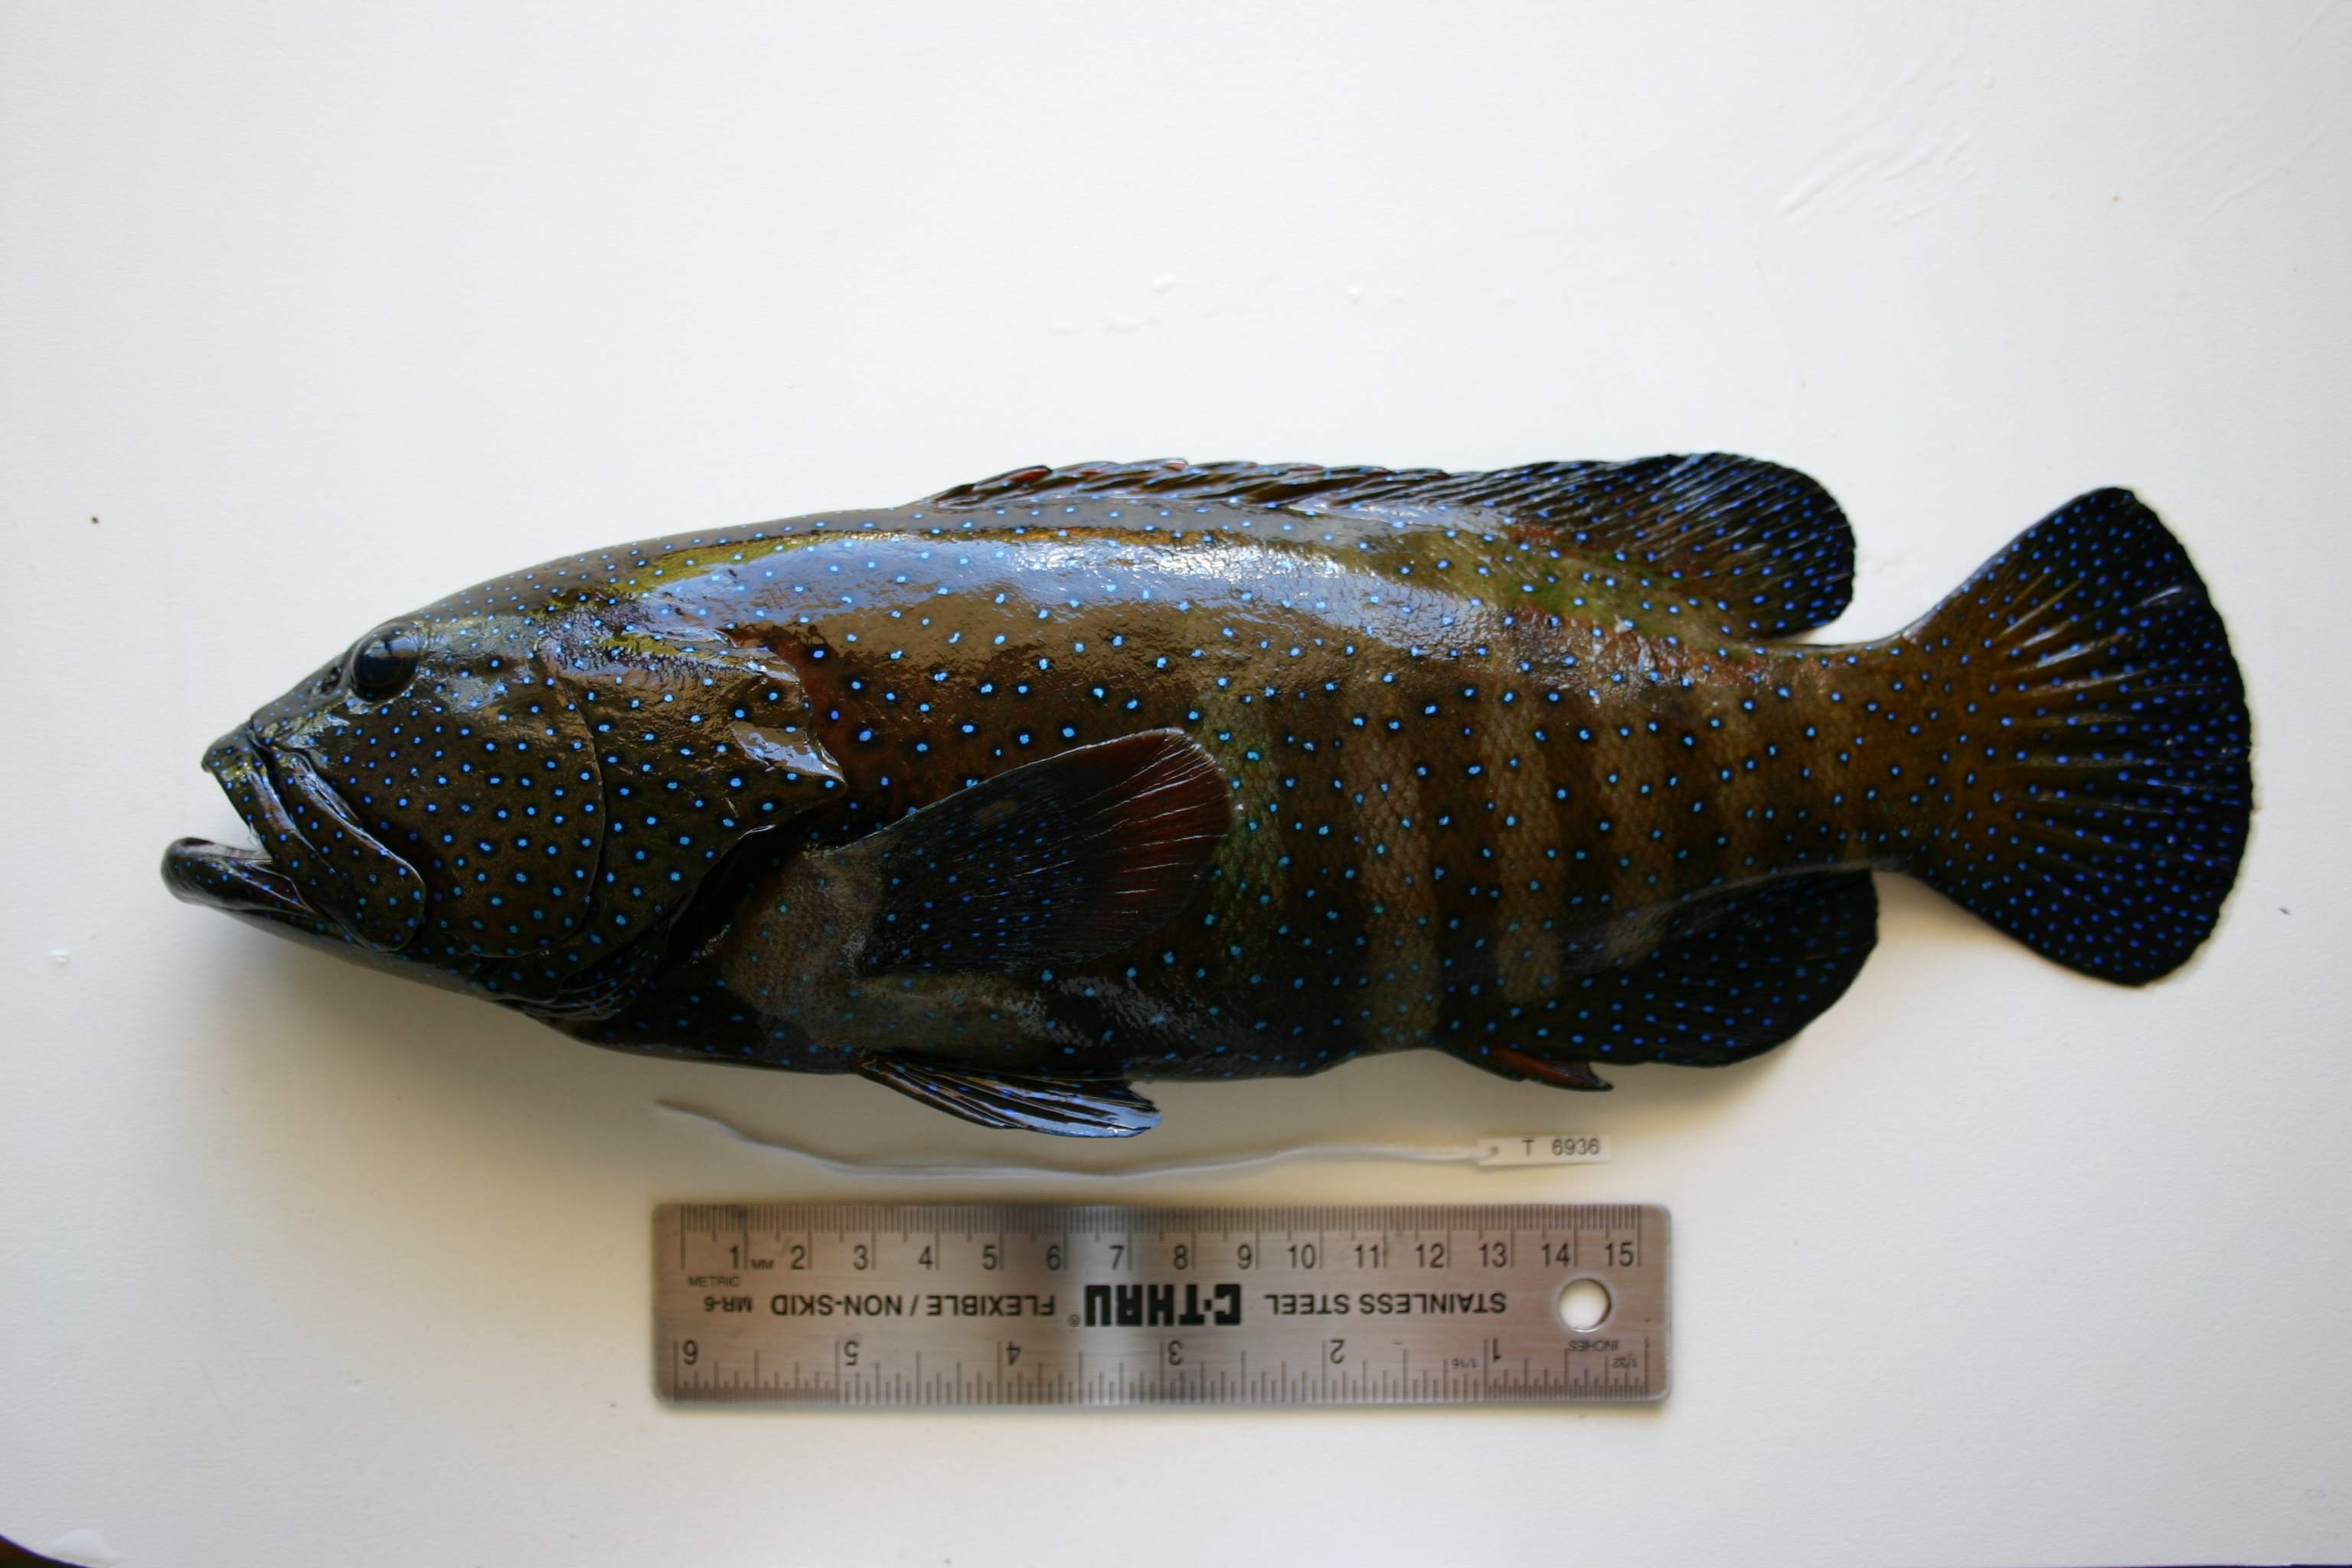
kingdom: Animalia
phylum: Chordata
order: Perciformes
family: Serranidae
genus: Cephalopholis
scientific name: Cephalopholis argus
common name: Peacock grouper
